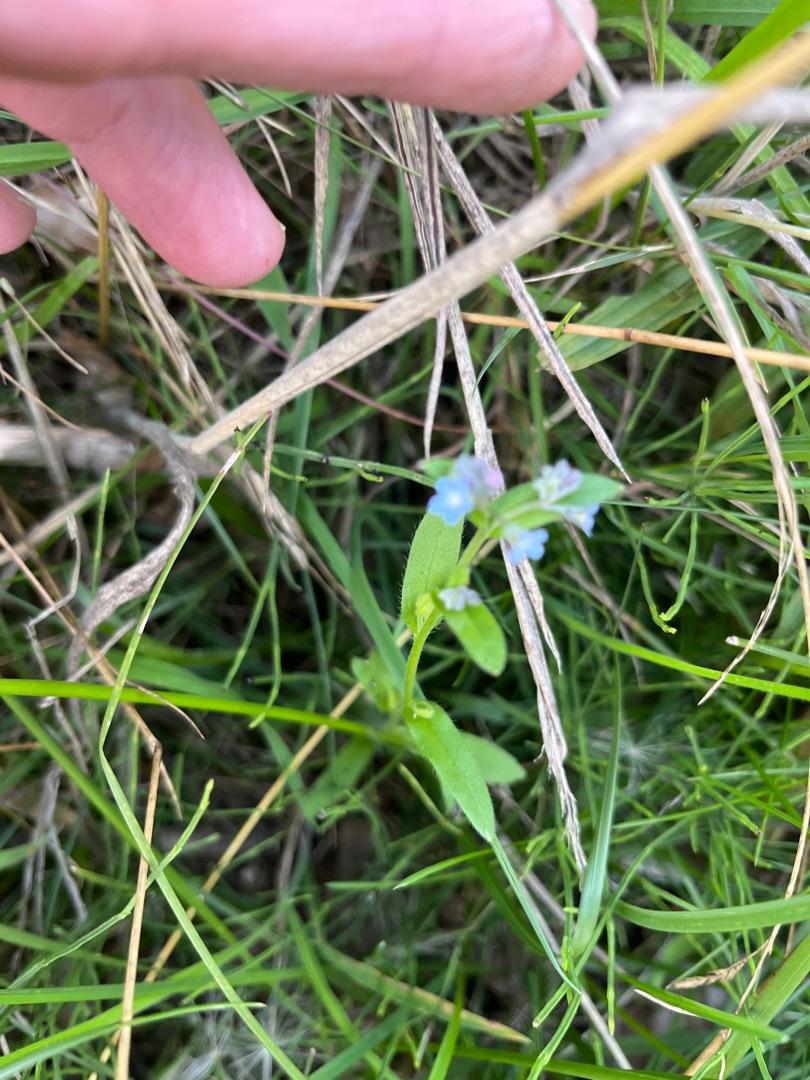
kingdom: Plantae
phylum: Tracheophyta
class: Magnoliopsida
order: Boraginales
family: Boraginaceae
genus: Myosotis
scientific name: Myosotis arvensis
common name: Mark-forglemmigej
